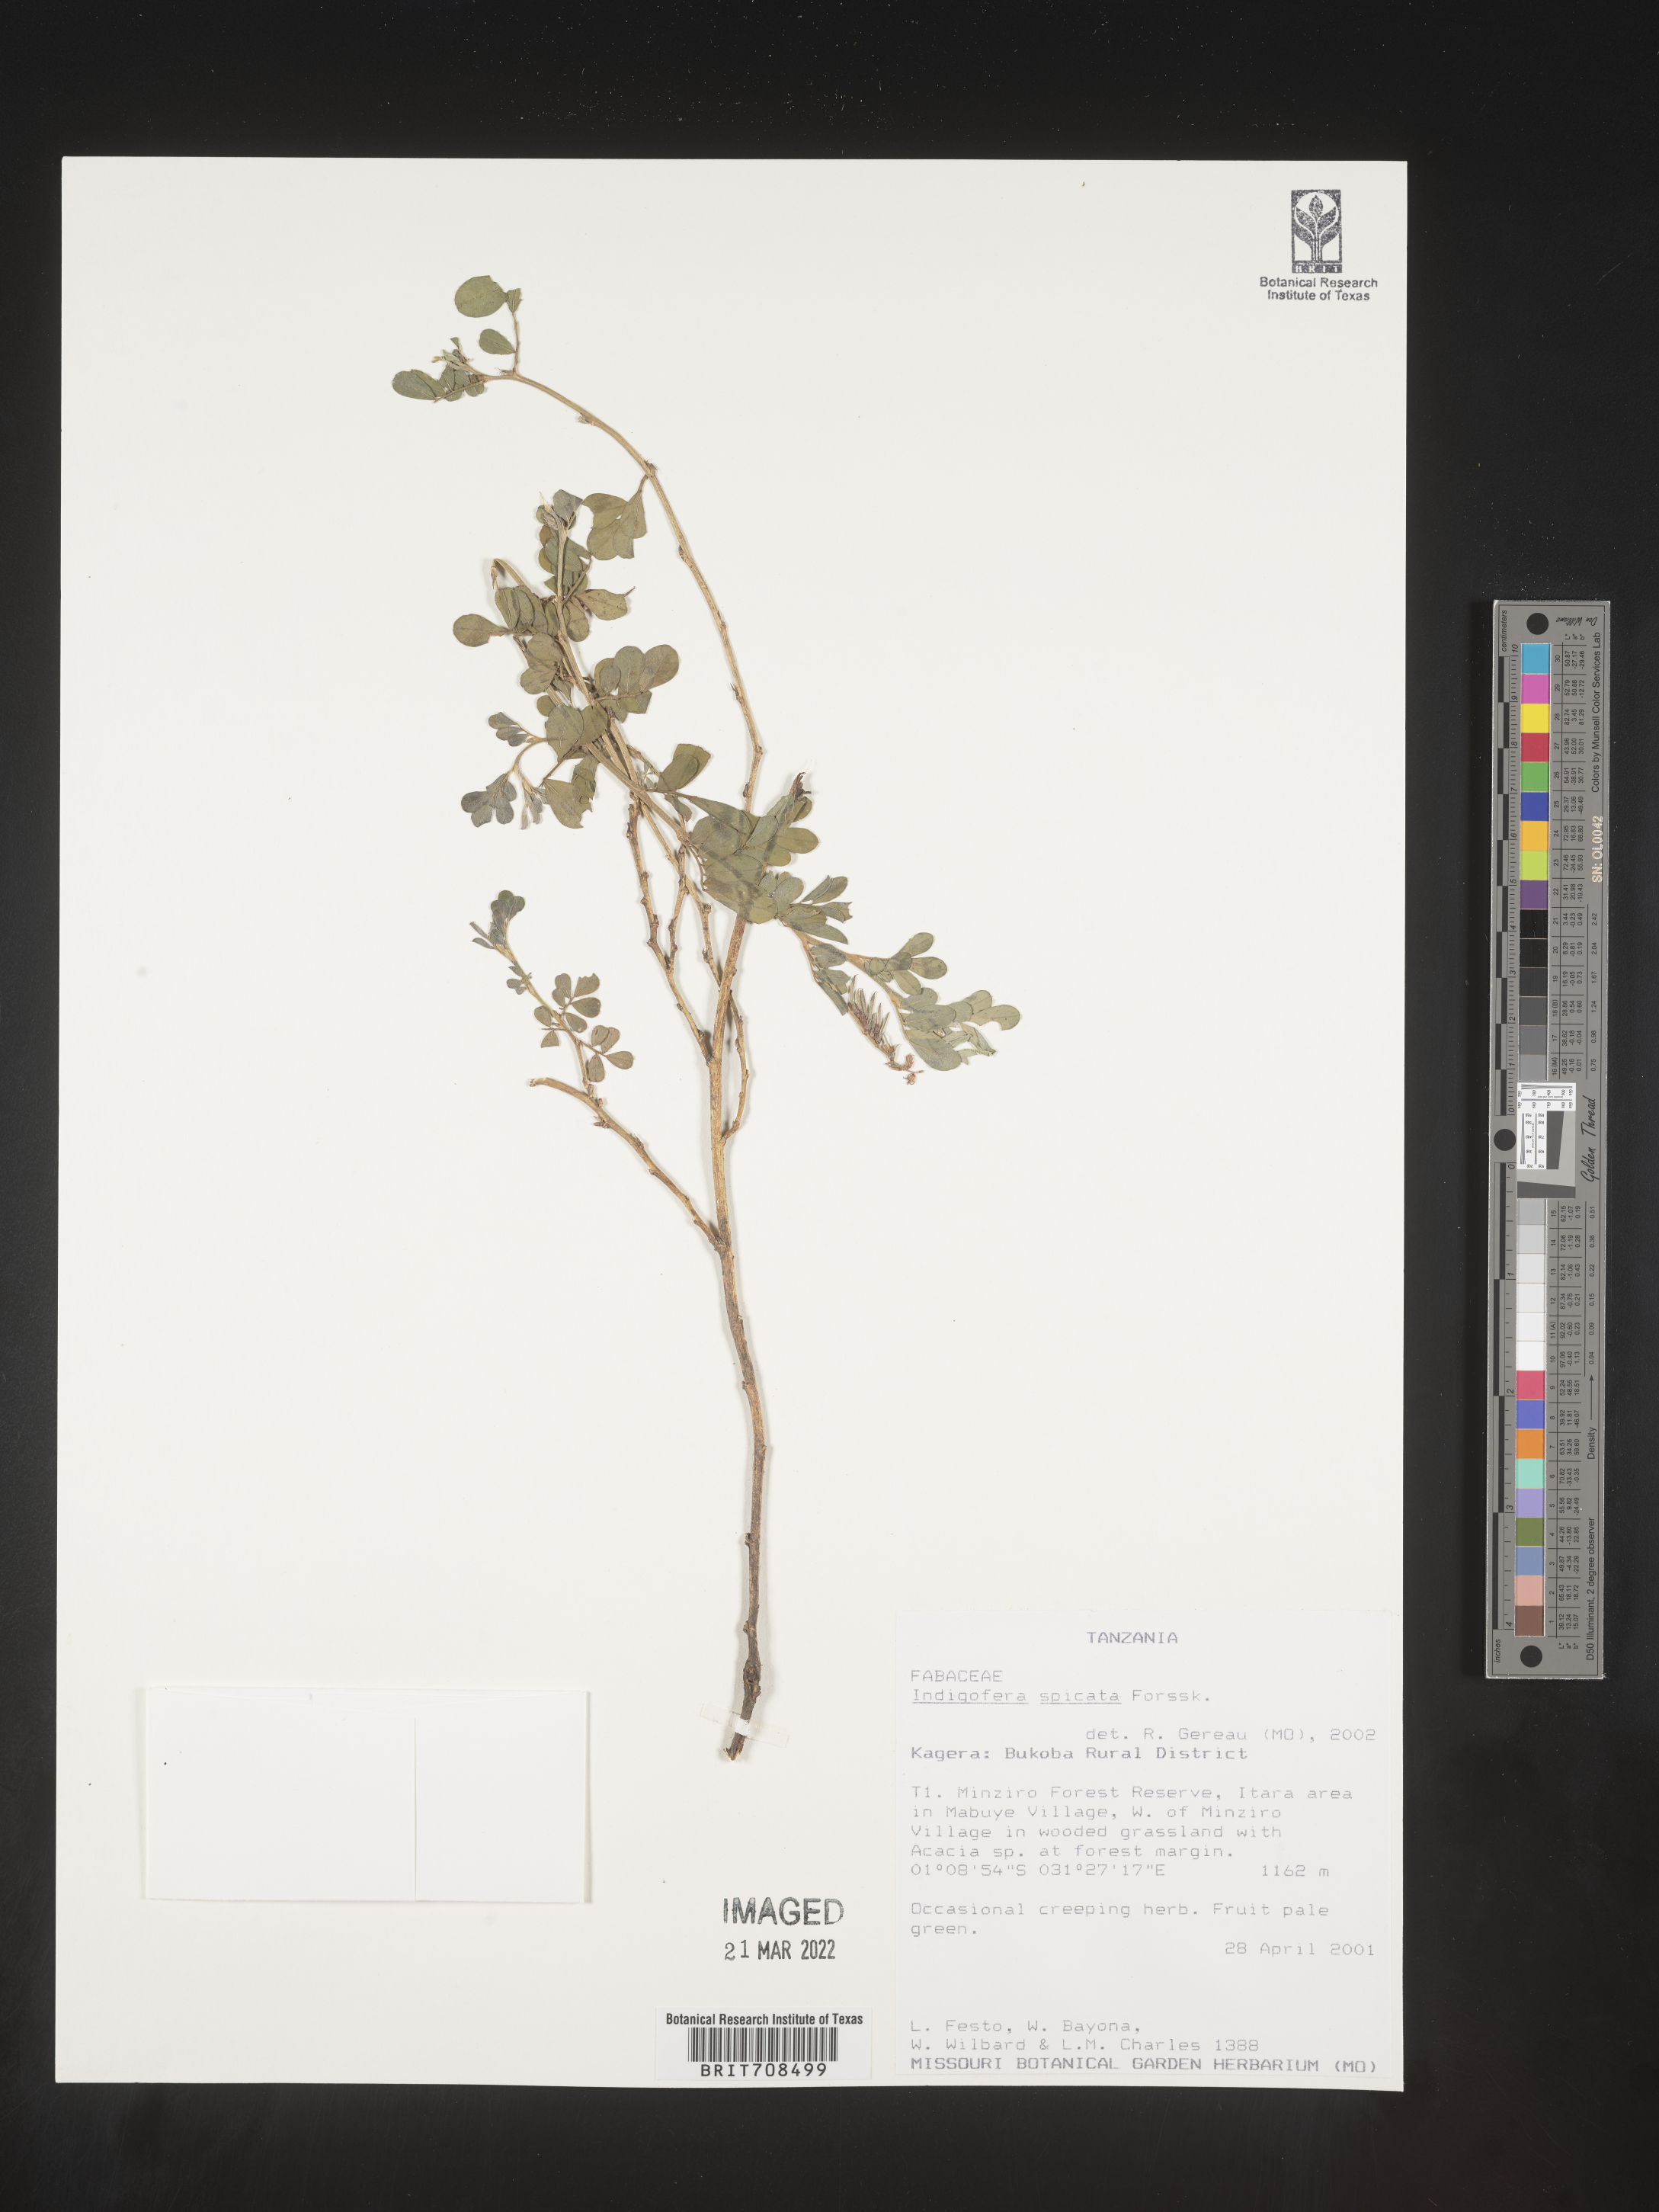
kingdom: Plantae
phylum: Tracheophyta
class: Magnoliopsida
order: Fabales
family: Fabaceae
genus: Indigofera
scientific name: Indigofera
